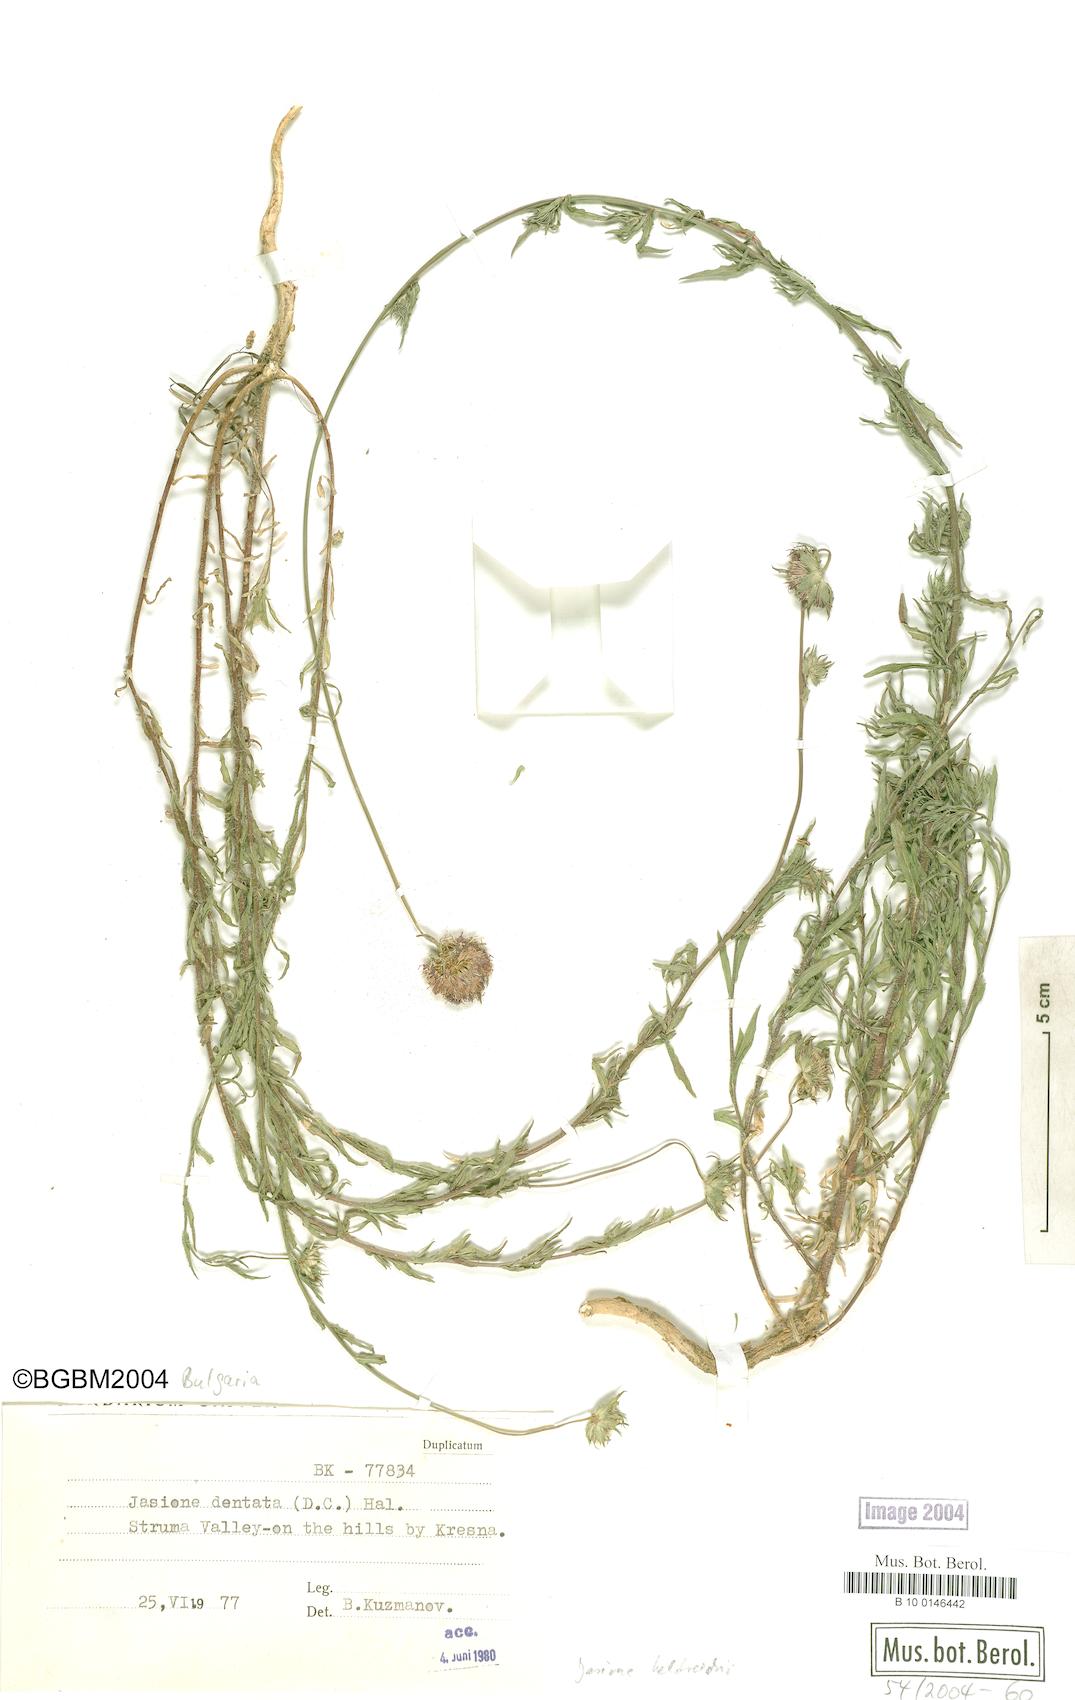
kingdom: Plantae
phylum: Tracheophyta
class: Magnoliopsida
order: Asterales
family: Campanulaceae
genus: Jasione
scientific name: Jasione heldreichii
